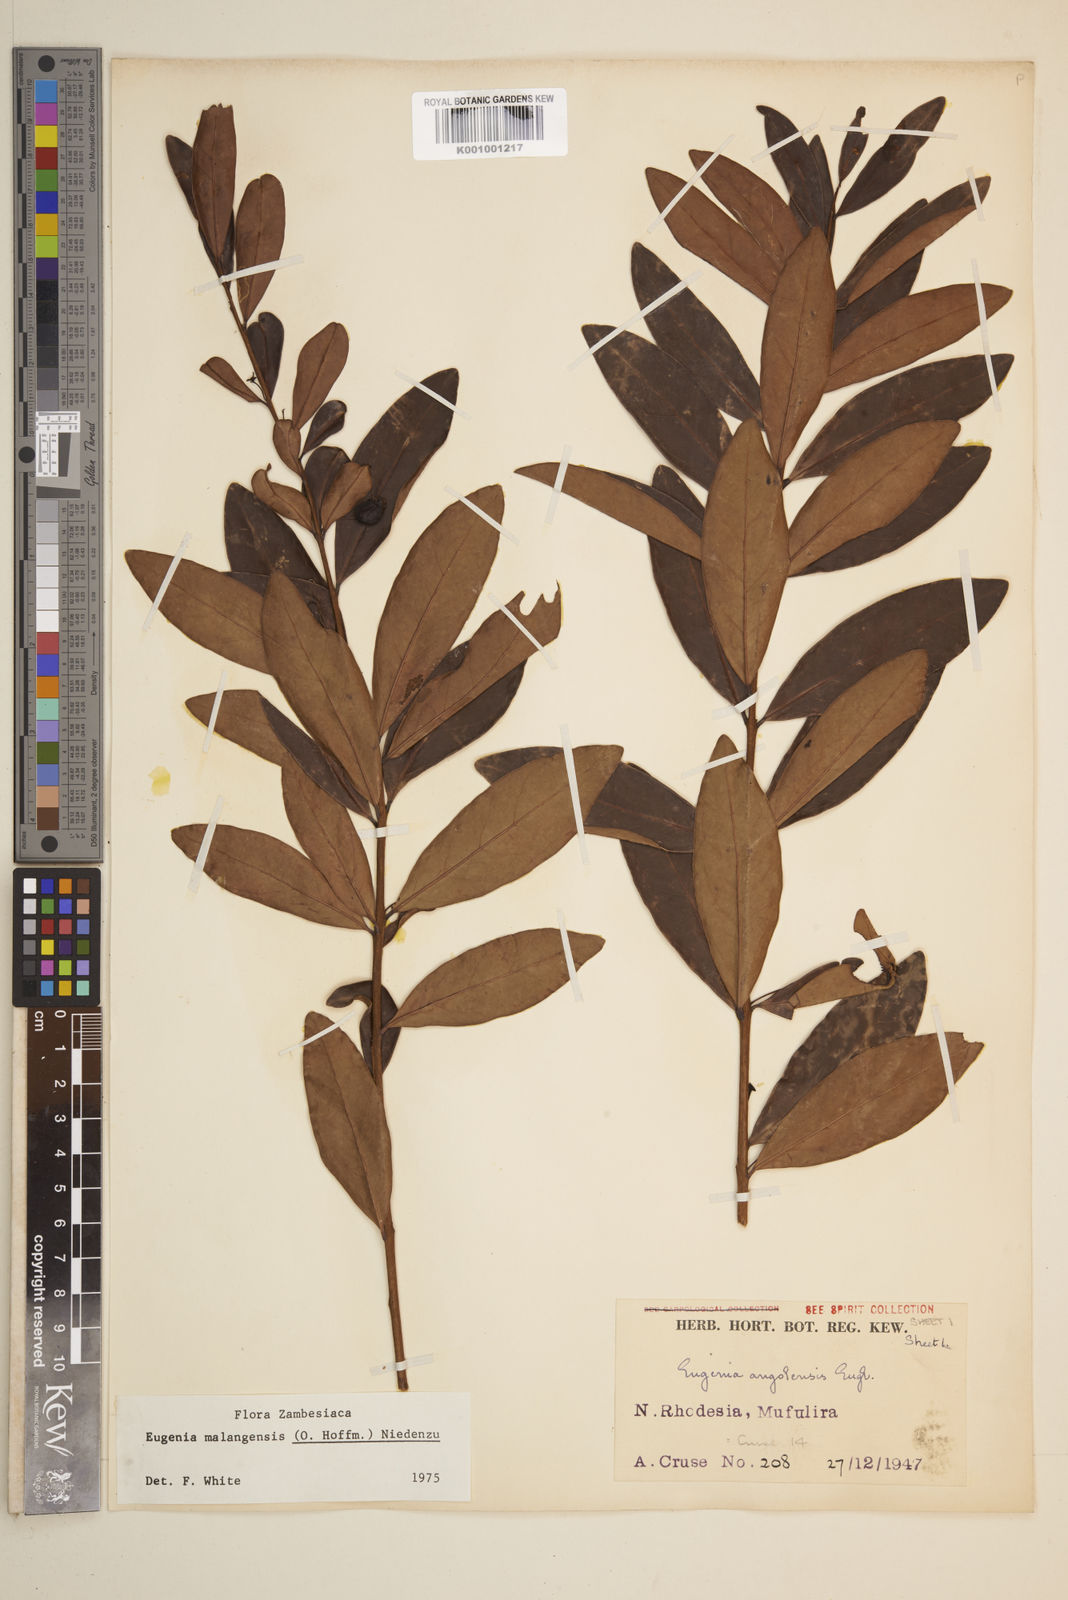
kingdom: Plantae
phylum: Tracheophyta
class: Magnoliopsida
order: Myrtales
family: Myrtaceae
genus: Eugenia
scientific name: Eugenia malangensis
